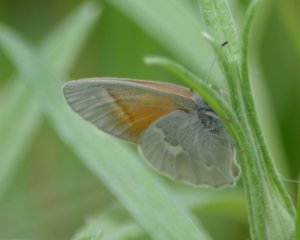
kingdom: Animalia
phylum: Arthropoda
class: Insecta
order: Lepidoptera
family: Nymphalidae
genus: Coenonympha
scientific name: Coenonympha tullia
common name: Large Heath
